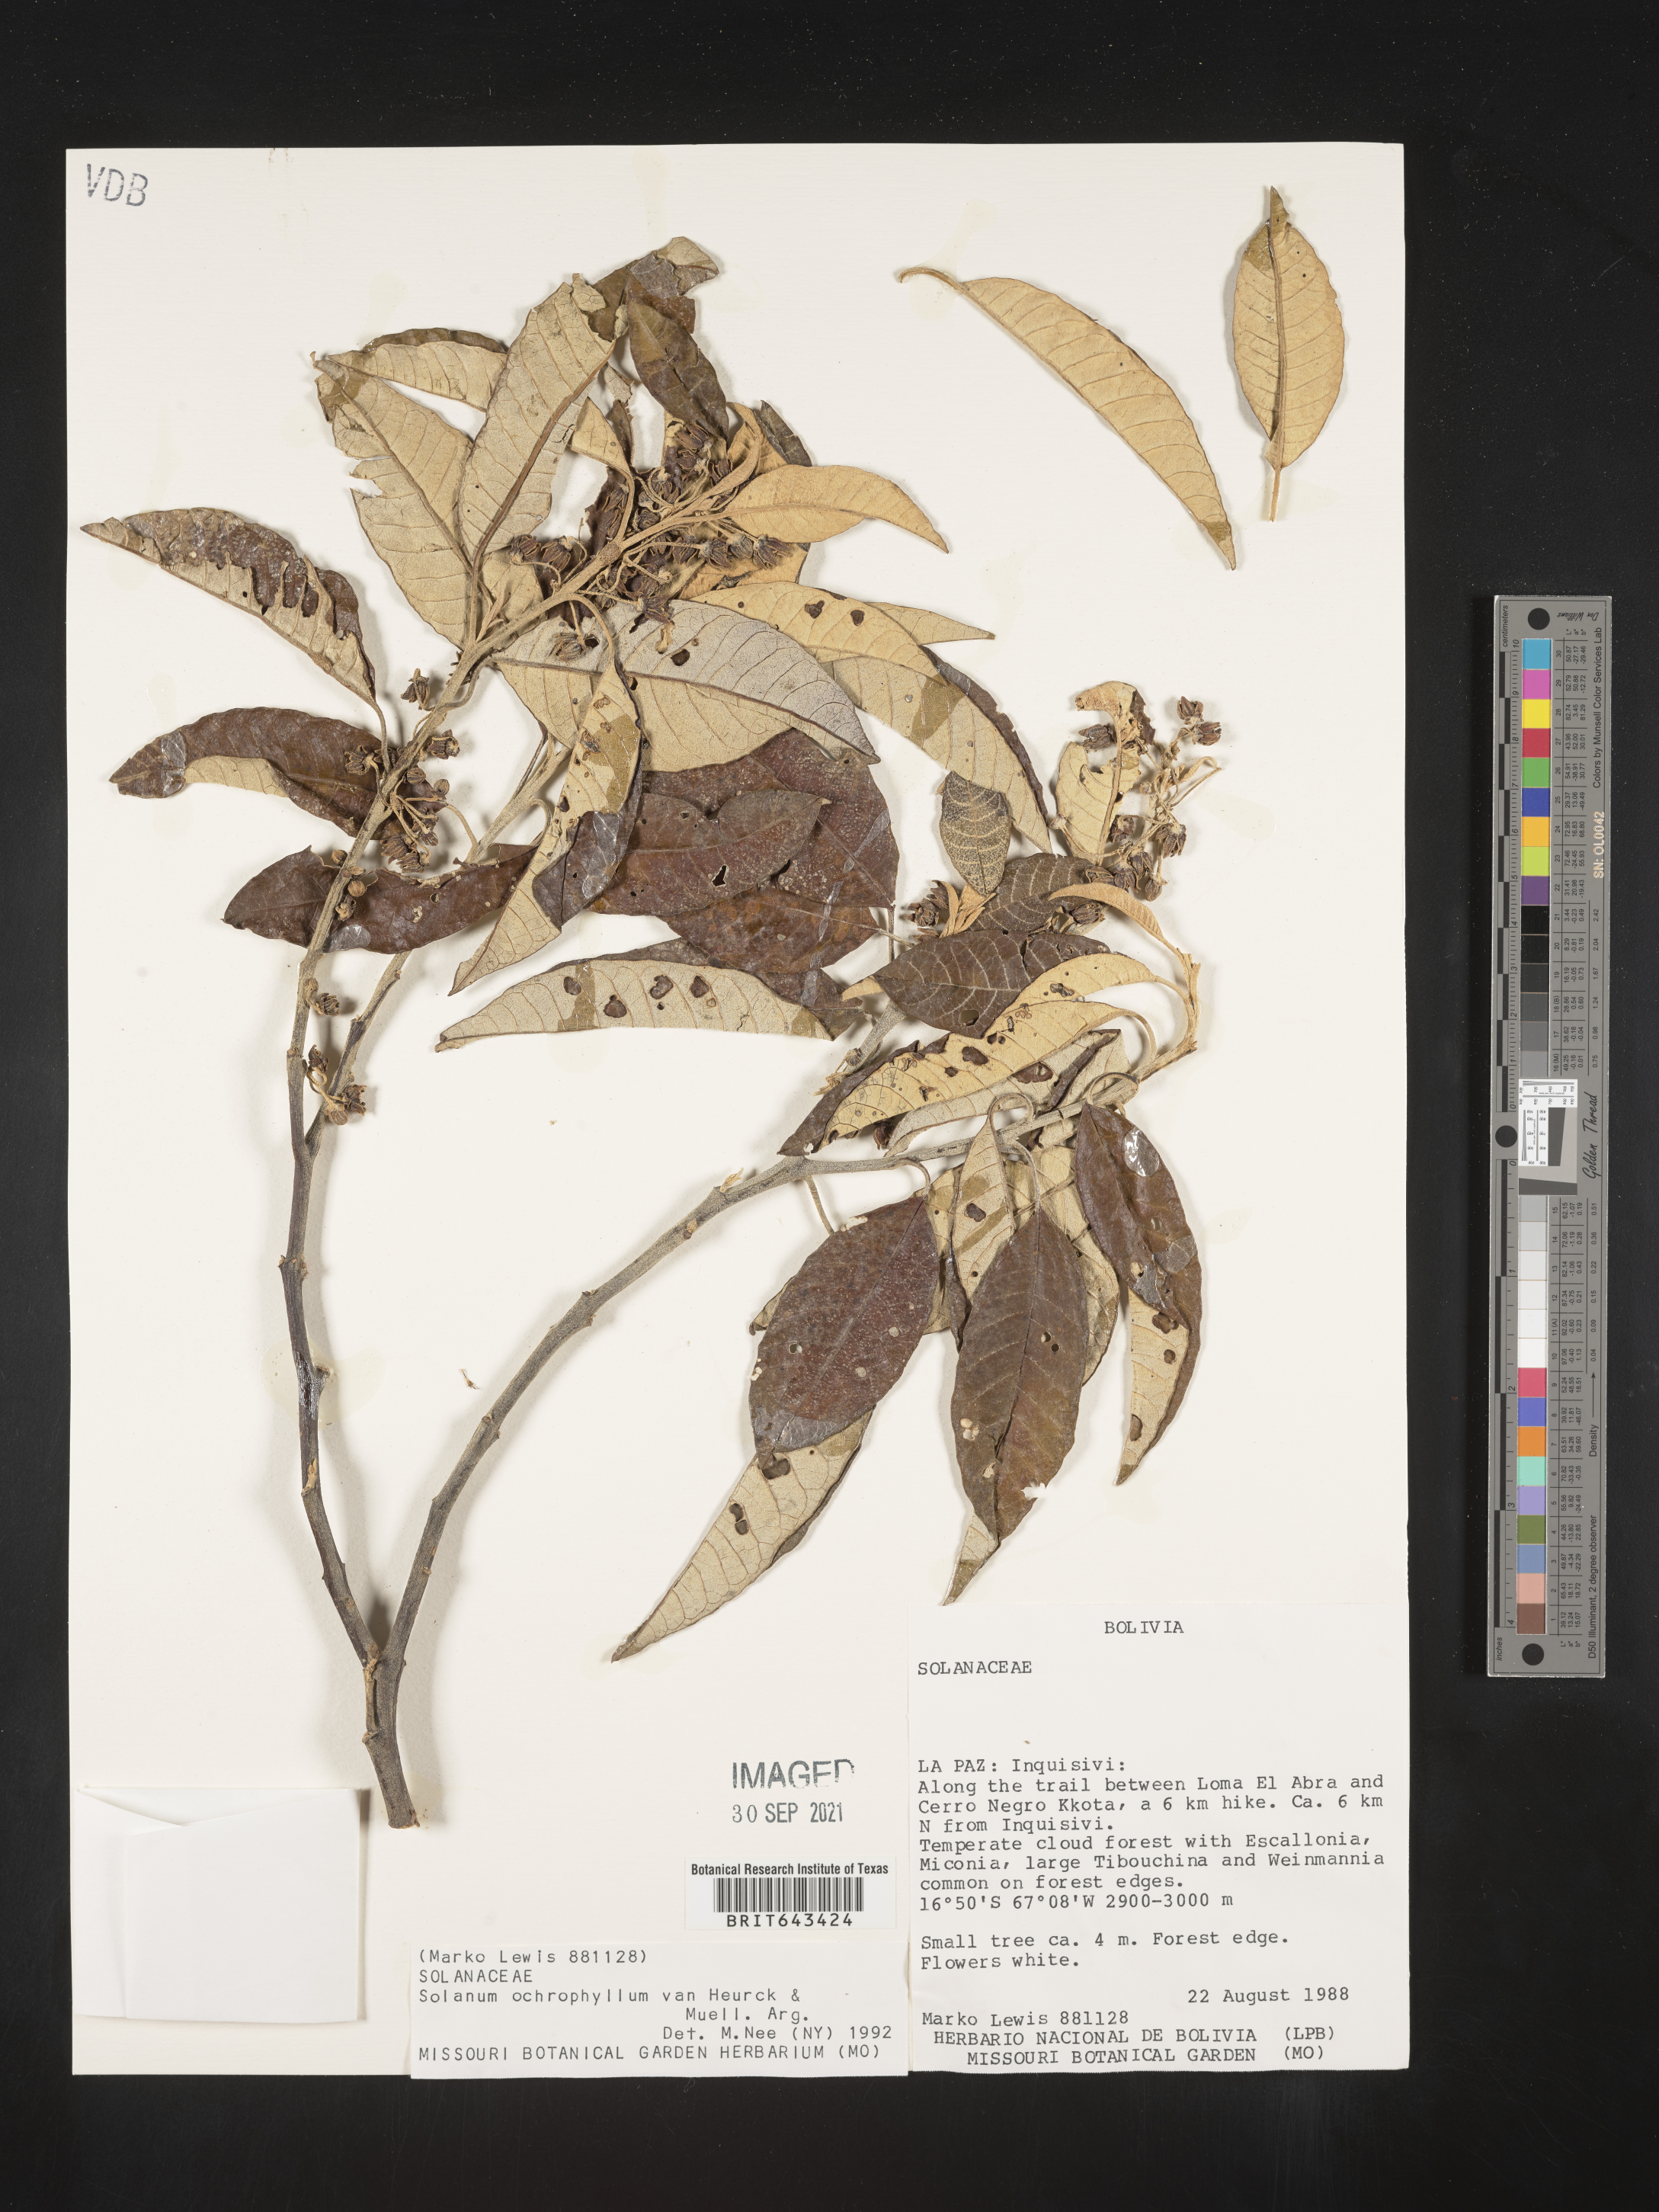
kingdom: Plantae
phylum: Tracheophyta
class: Magnoliopsida
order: Solanales
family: Solanaceae
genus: Solanum
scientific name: Solanum
